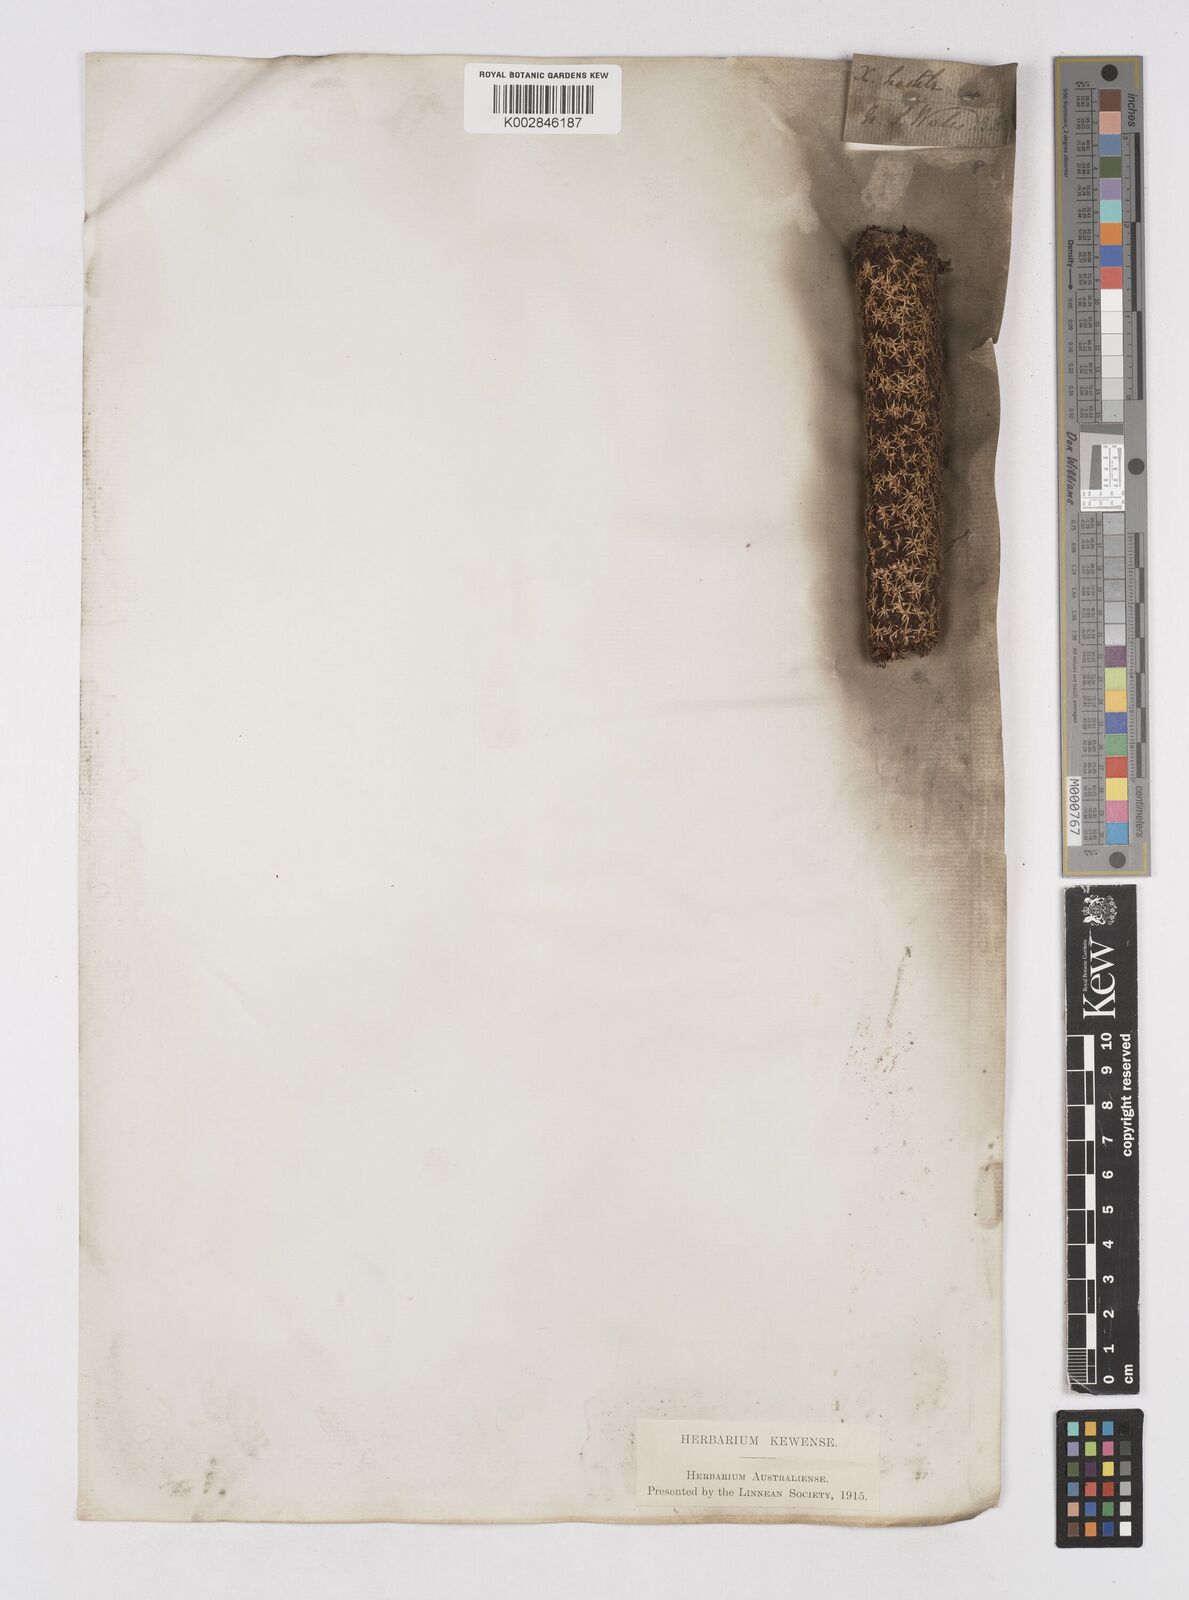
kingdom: Plantae
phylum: Tracheophyta
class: Liliopsida
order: Asparagales
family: Asphodelaceae
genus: Xanthorrhoea
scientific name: Xanthorrhoea arborea
